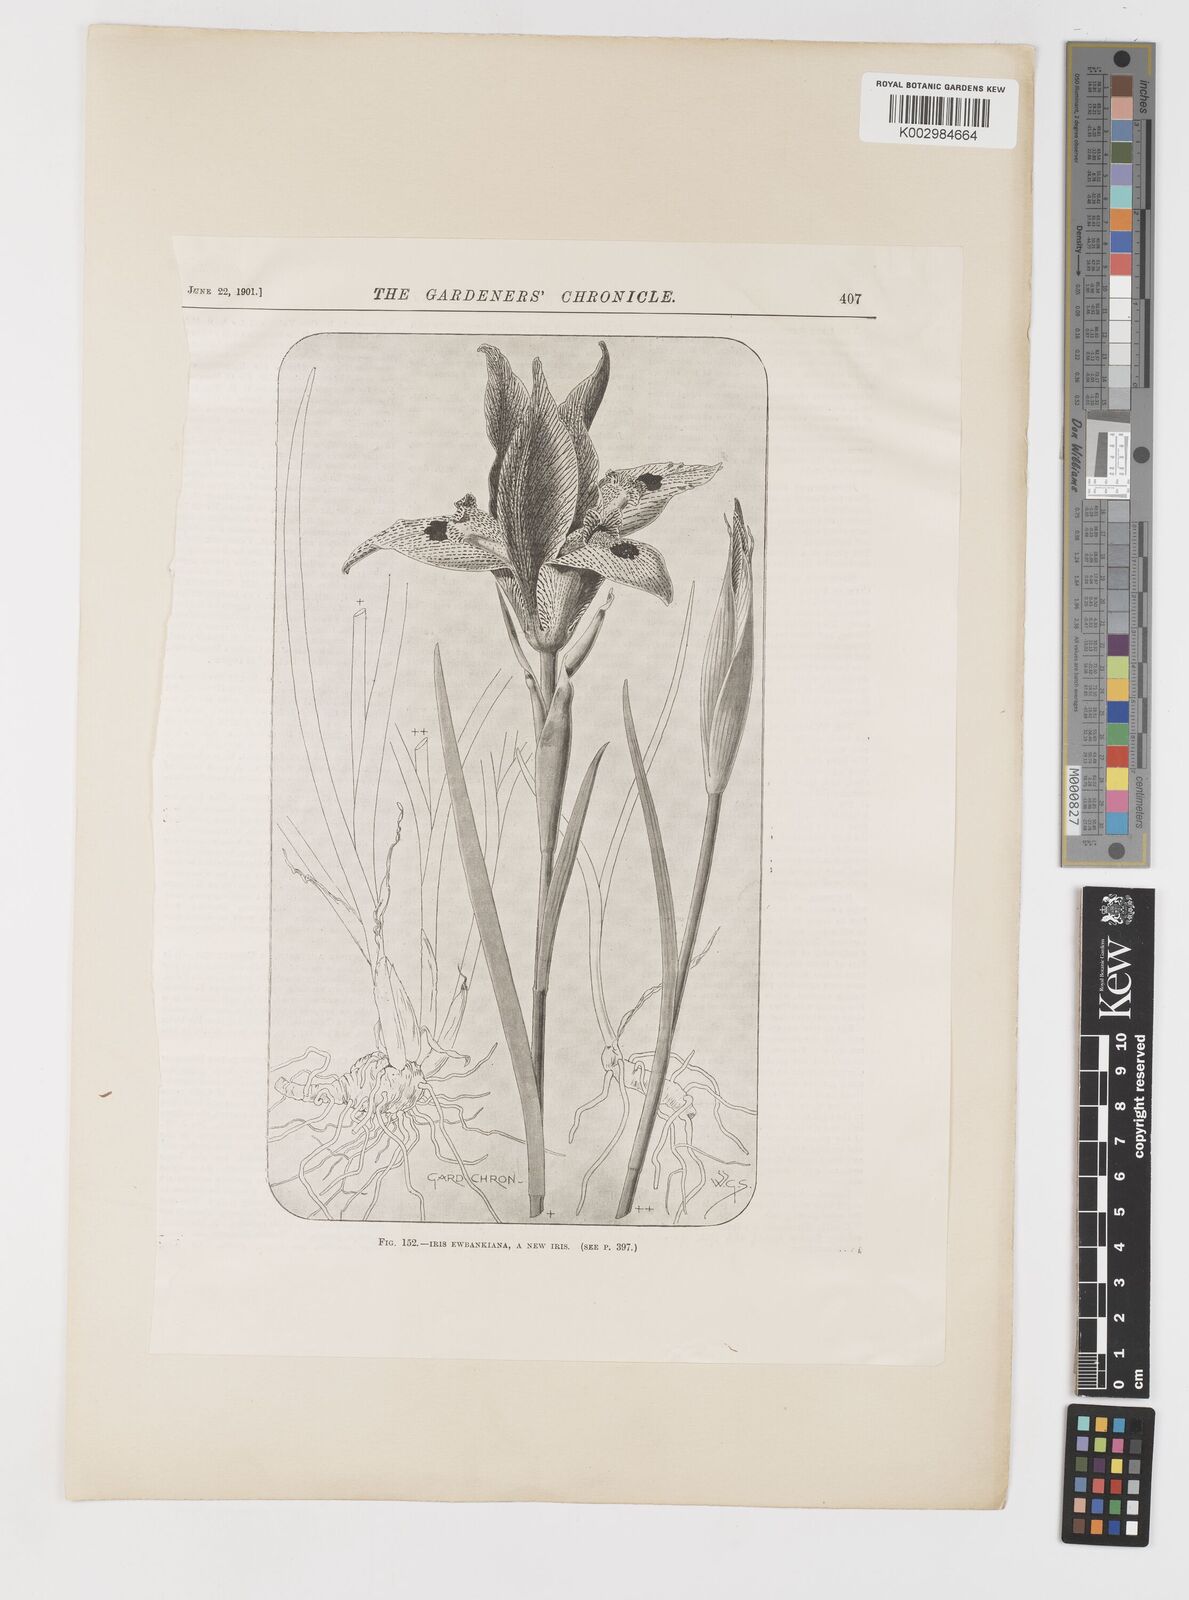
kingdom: Plantae
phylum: Tracheophyta
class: Liliopsida
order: Asparagales
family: Iridaceae
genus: Iris
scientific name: Iris acutiloba
